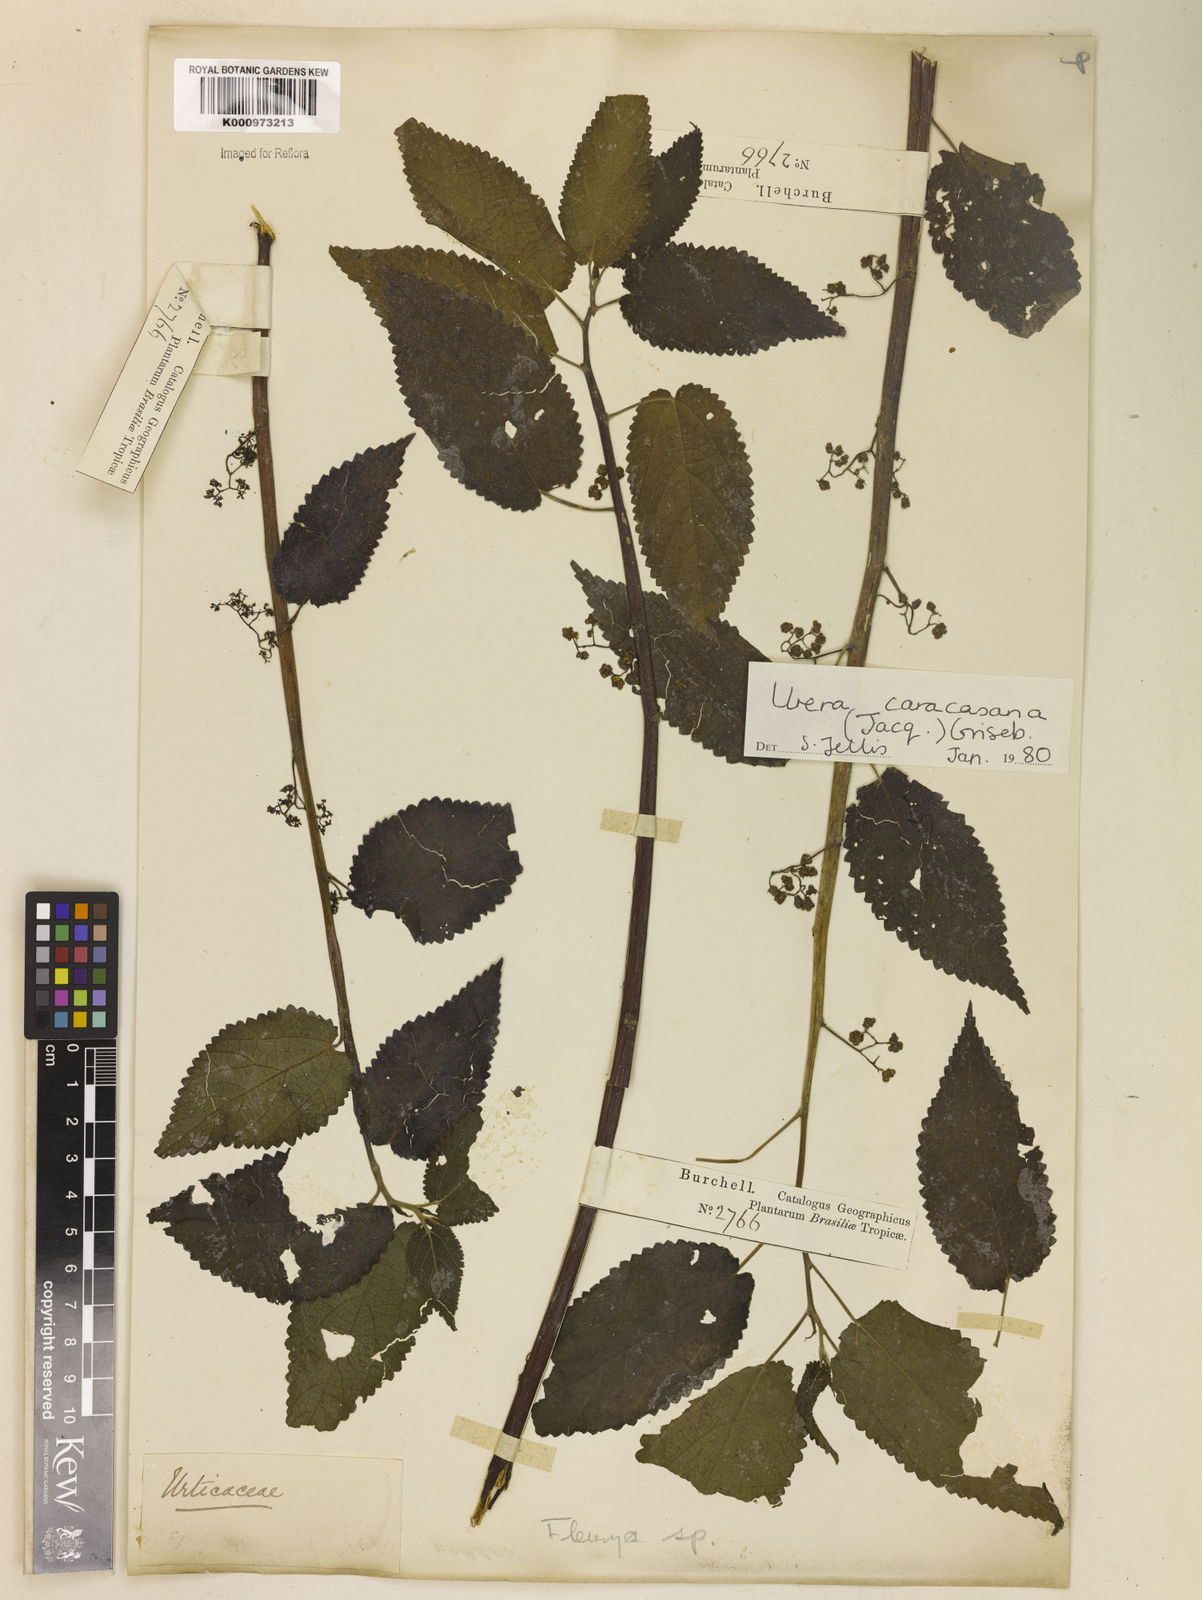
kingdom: Plantae
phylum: Tracheophyta
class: Magnoliopsida
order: Rosales
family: Urticaceae
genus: Urera
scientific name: Urera caracasana
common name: Flameberry
